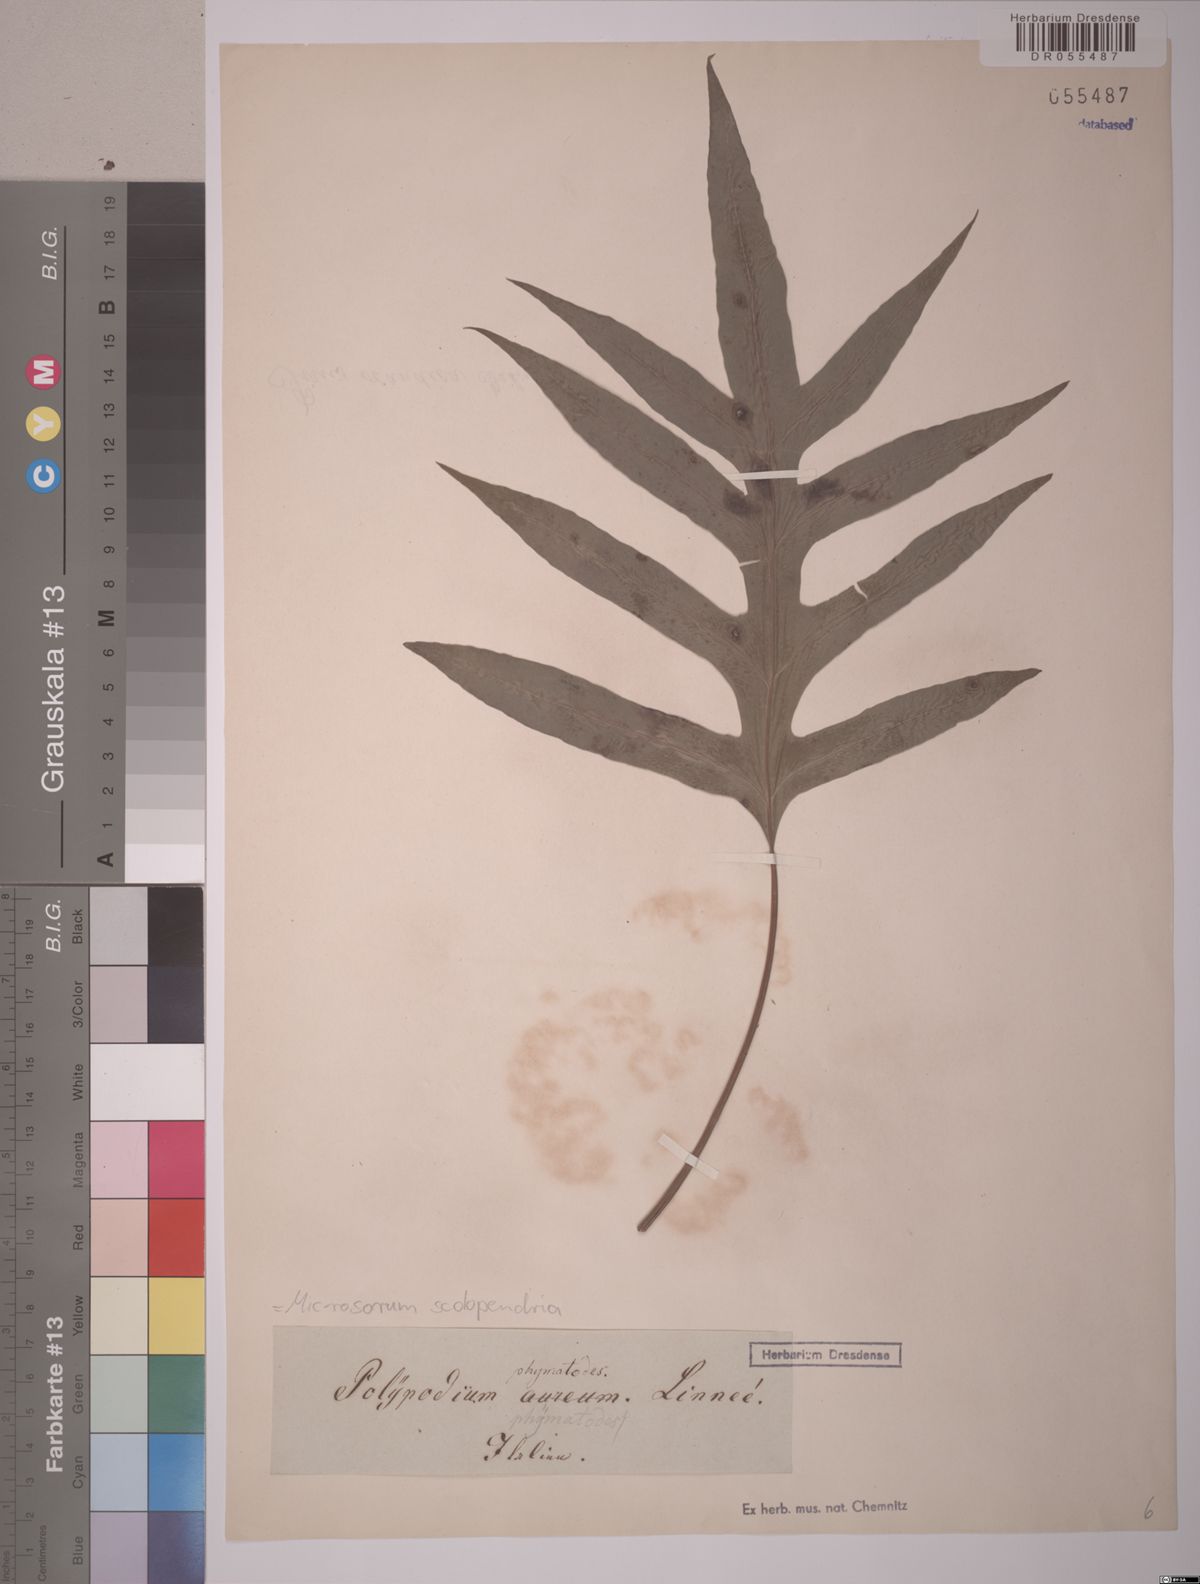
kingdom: Plantae
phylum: Tracheophyta
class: Polypodiopsida
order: Polypodiales
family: Polypodiaceae
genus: Microsorum
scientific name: Microsorum scolopendria
